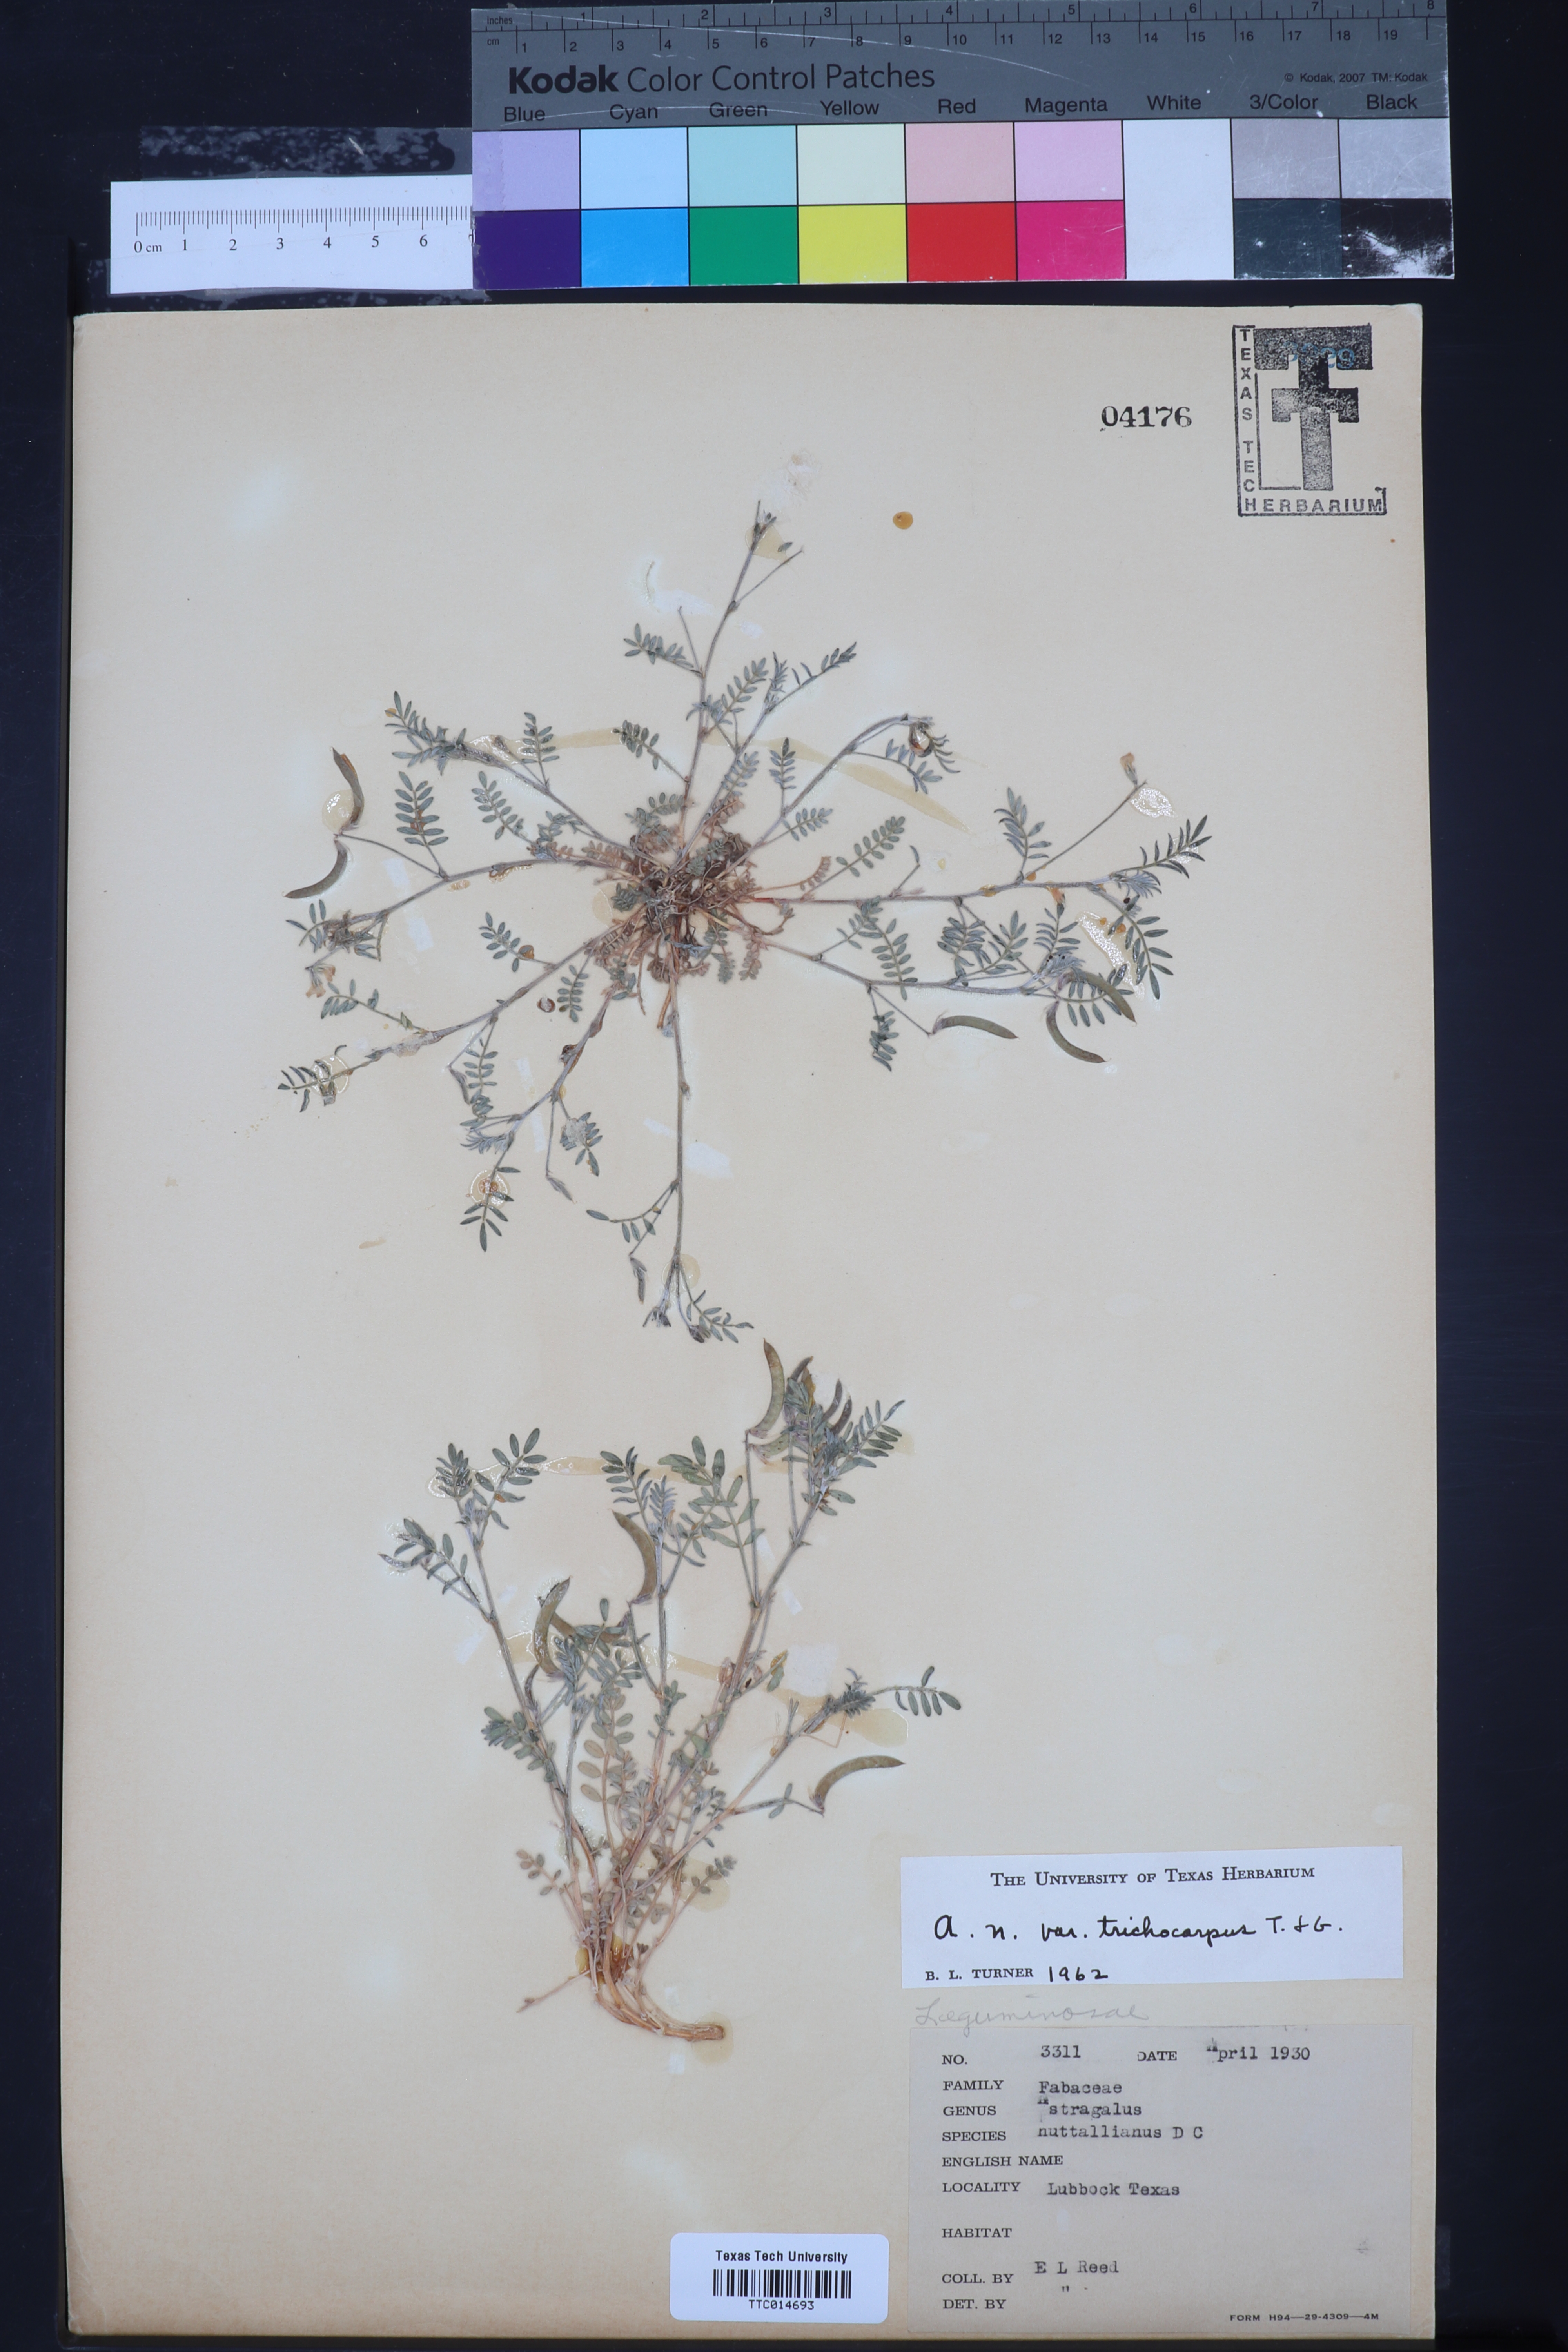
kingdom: Plantae
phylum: Tracheophyta
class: Magnoliopsida
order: Fabales
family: Fabaceae
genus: Astragalus
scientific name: Astragalus nuttallianus
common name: Smallflowered milkvetch
